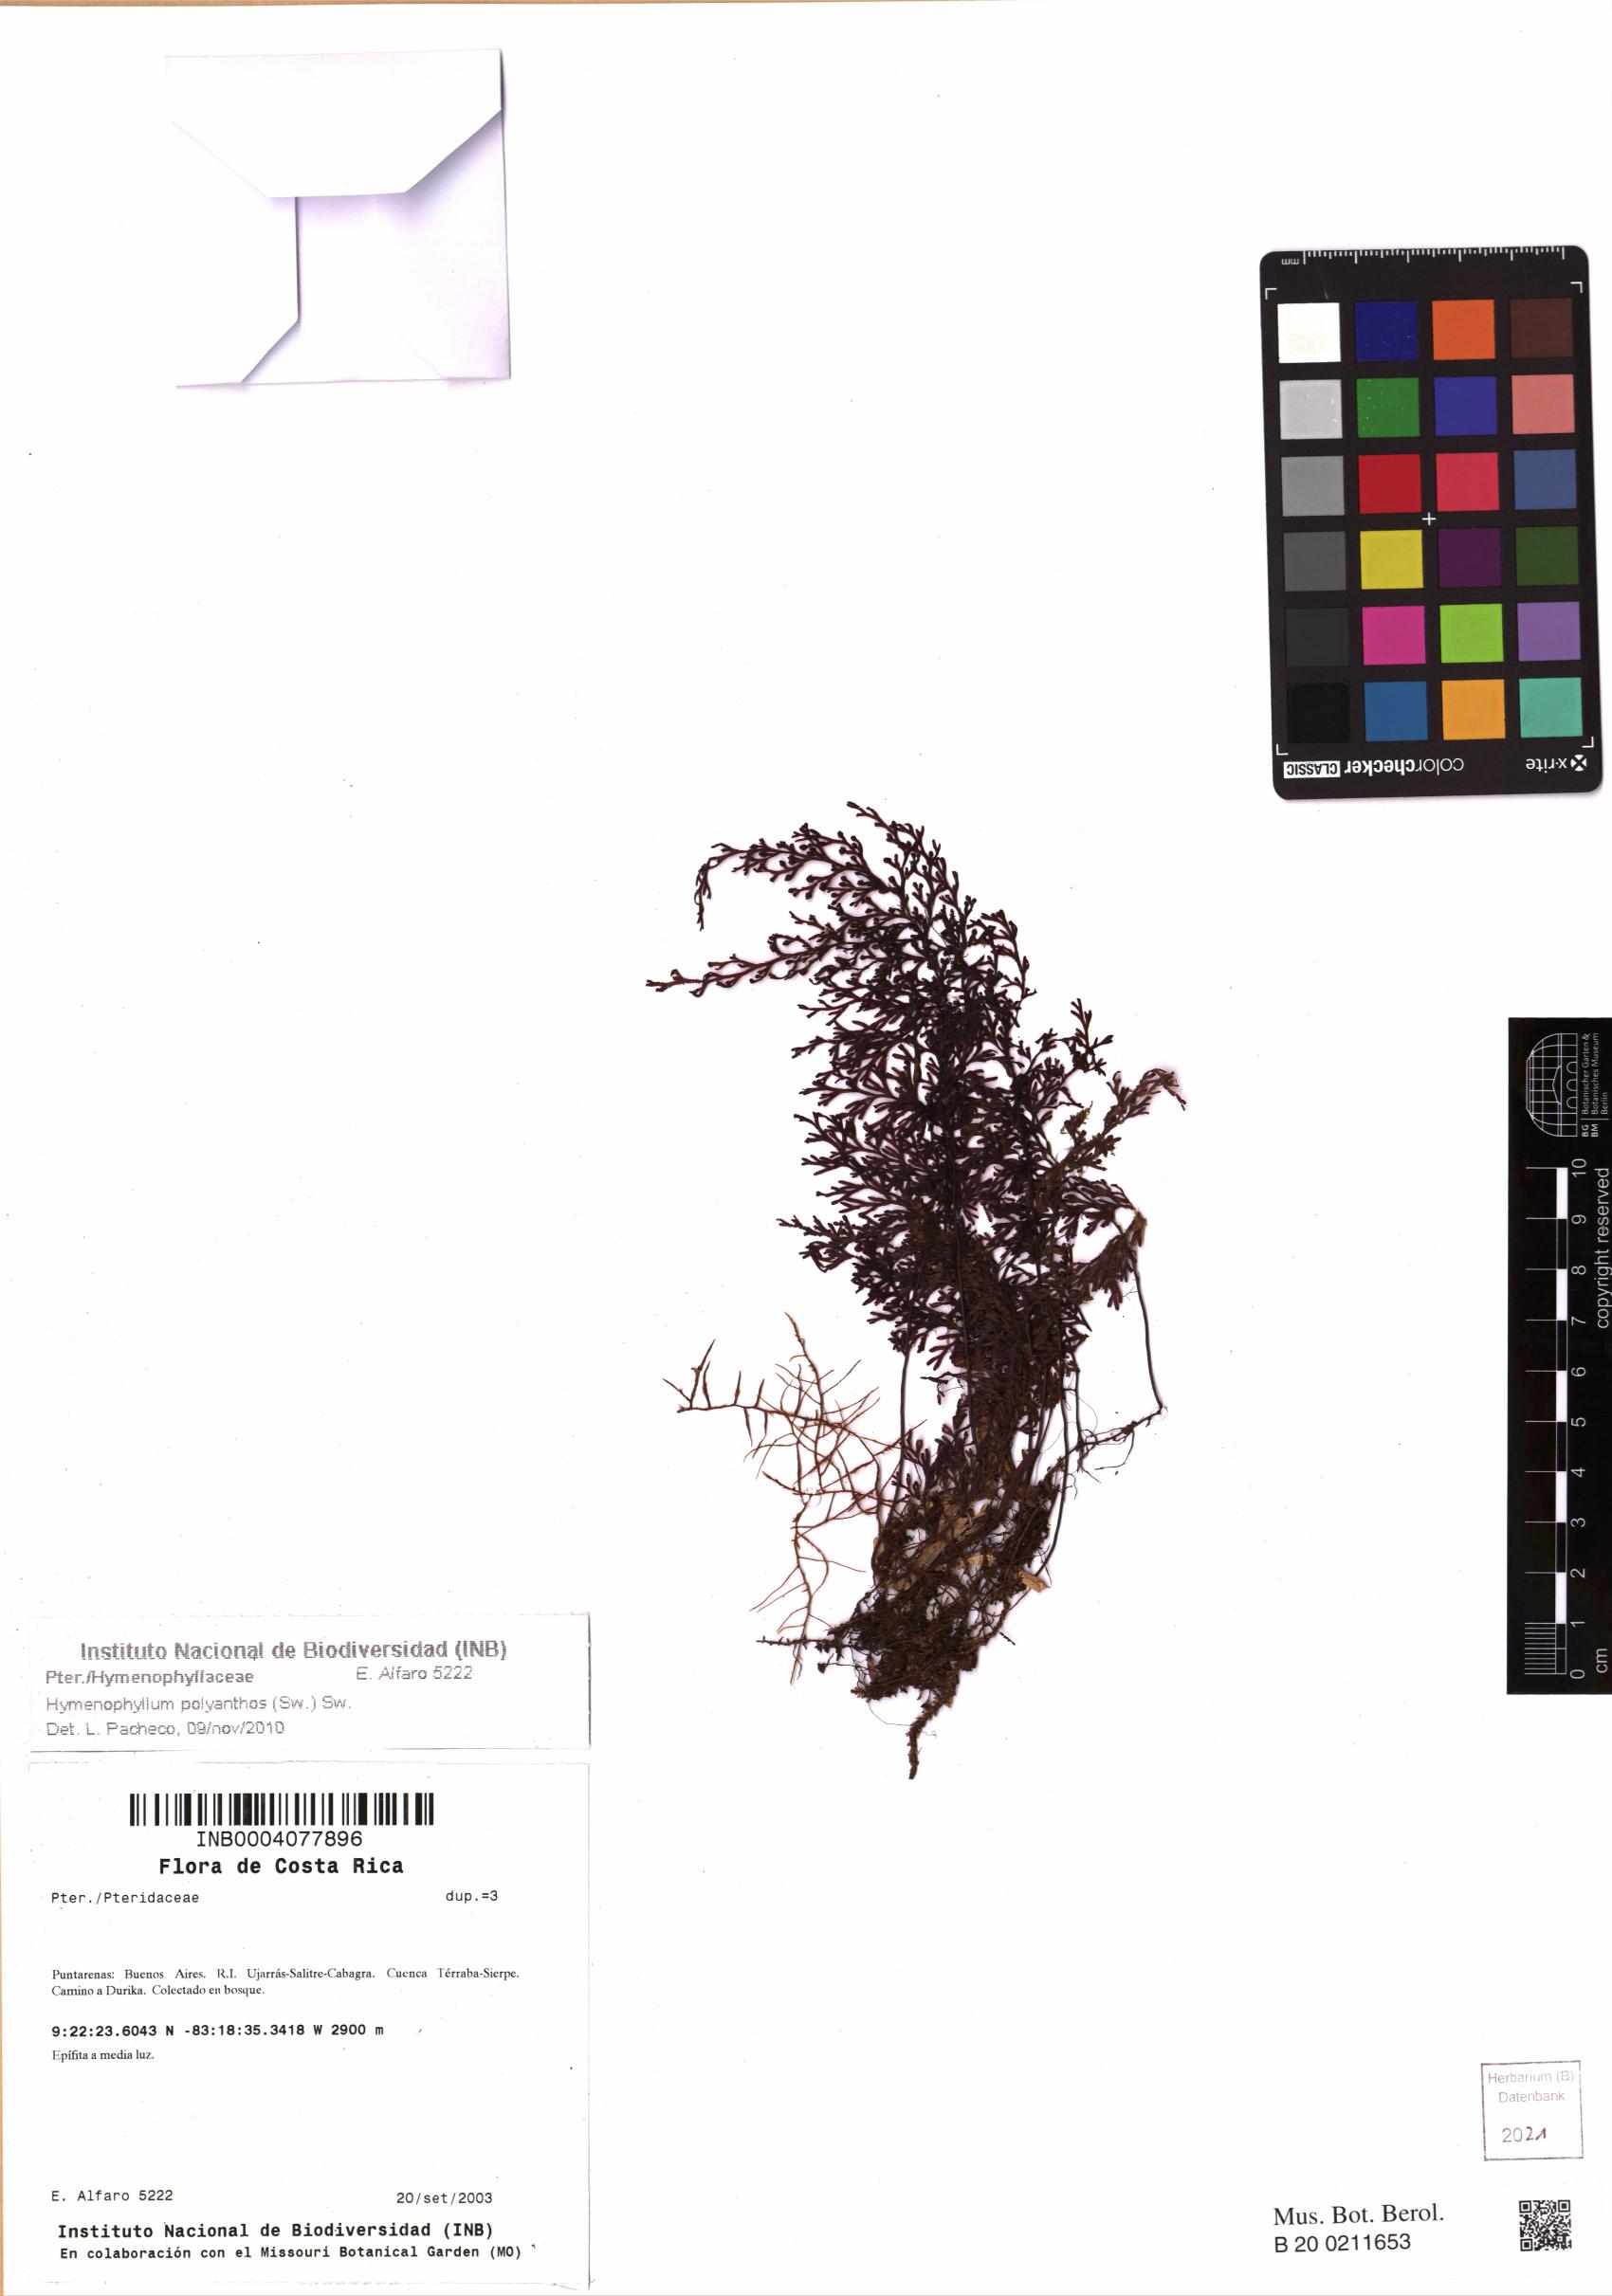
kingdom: Plantae
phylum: Tracheophyta
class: Polypodiopsida
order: Hymenophyllales
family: Hymenophyllaceae
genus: Hymenophyllum
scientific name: Hymenophyllum polyanthos
